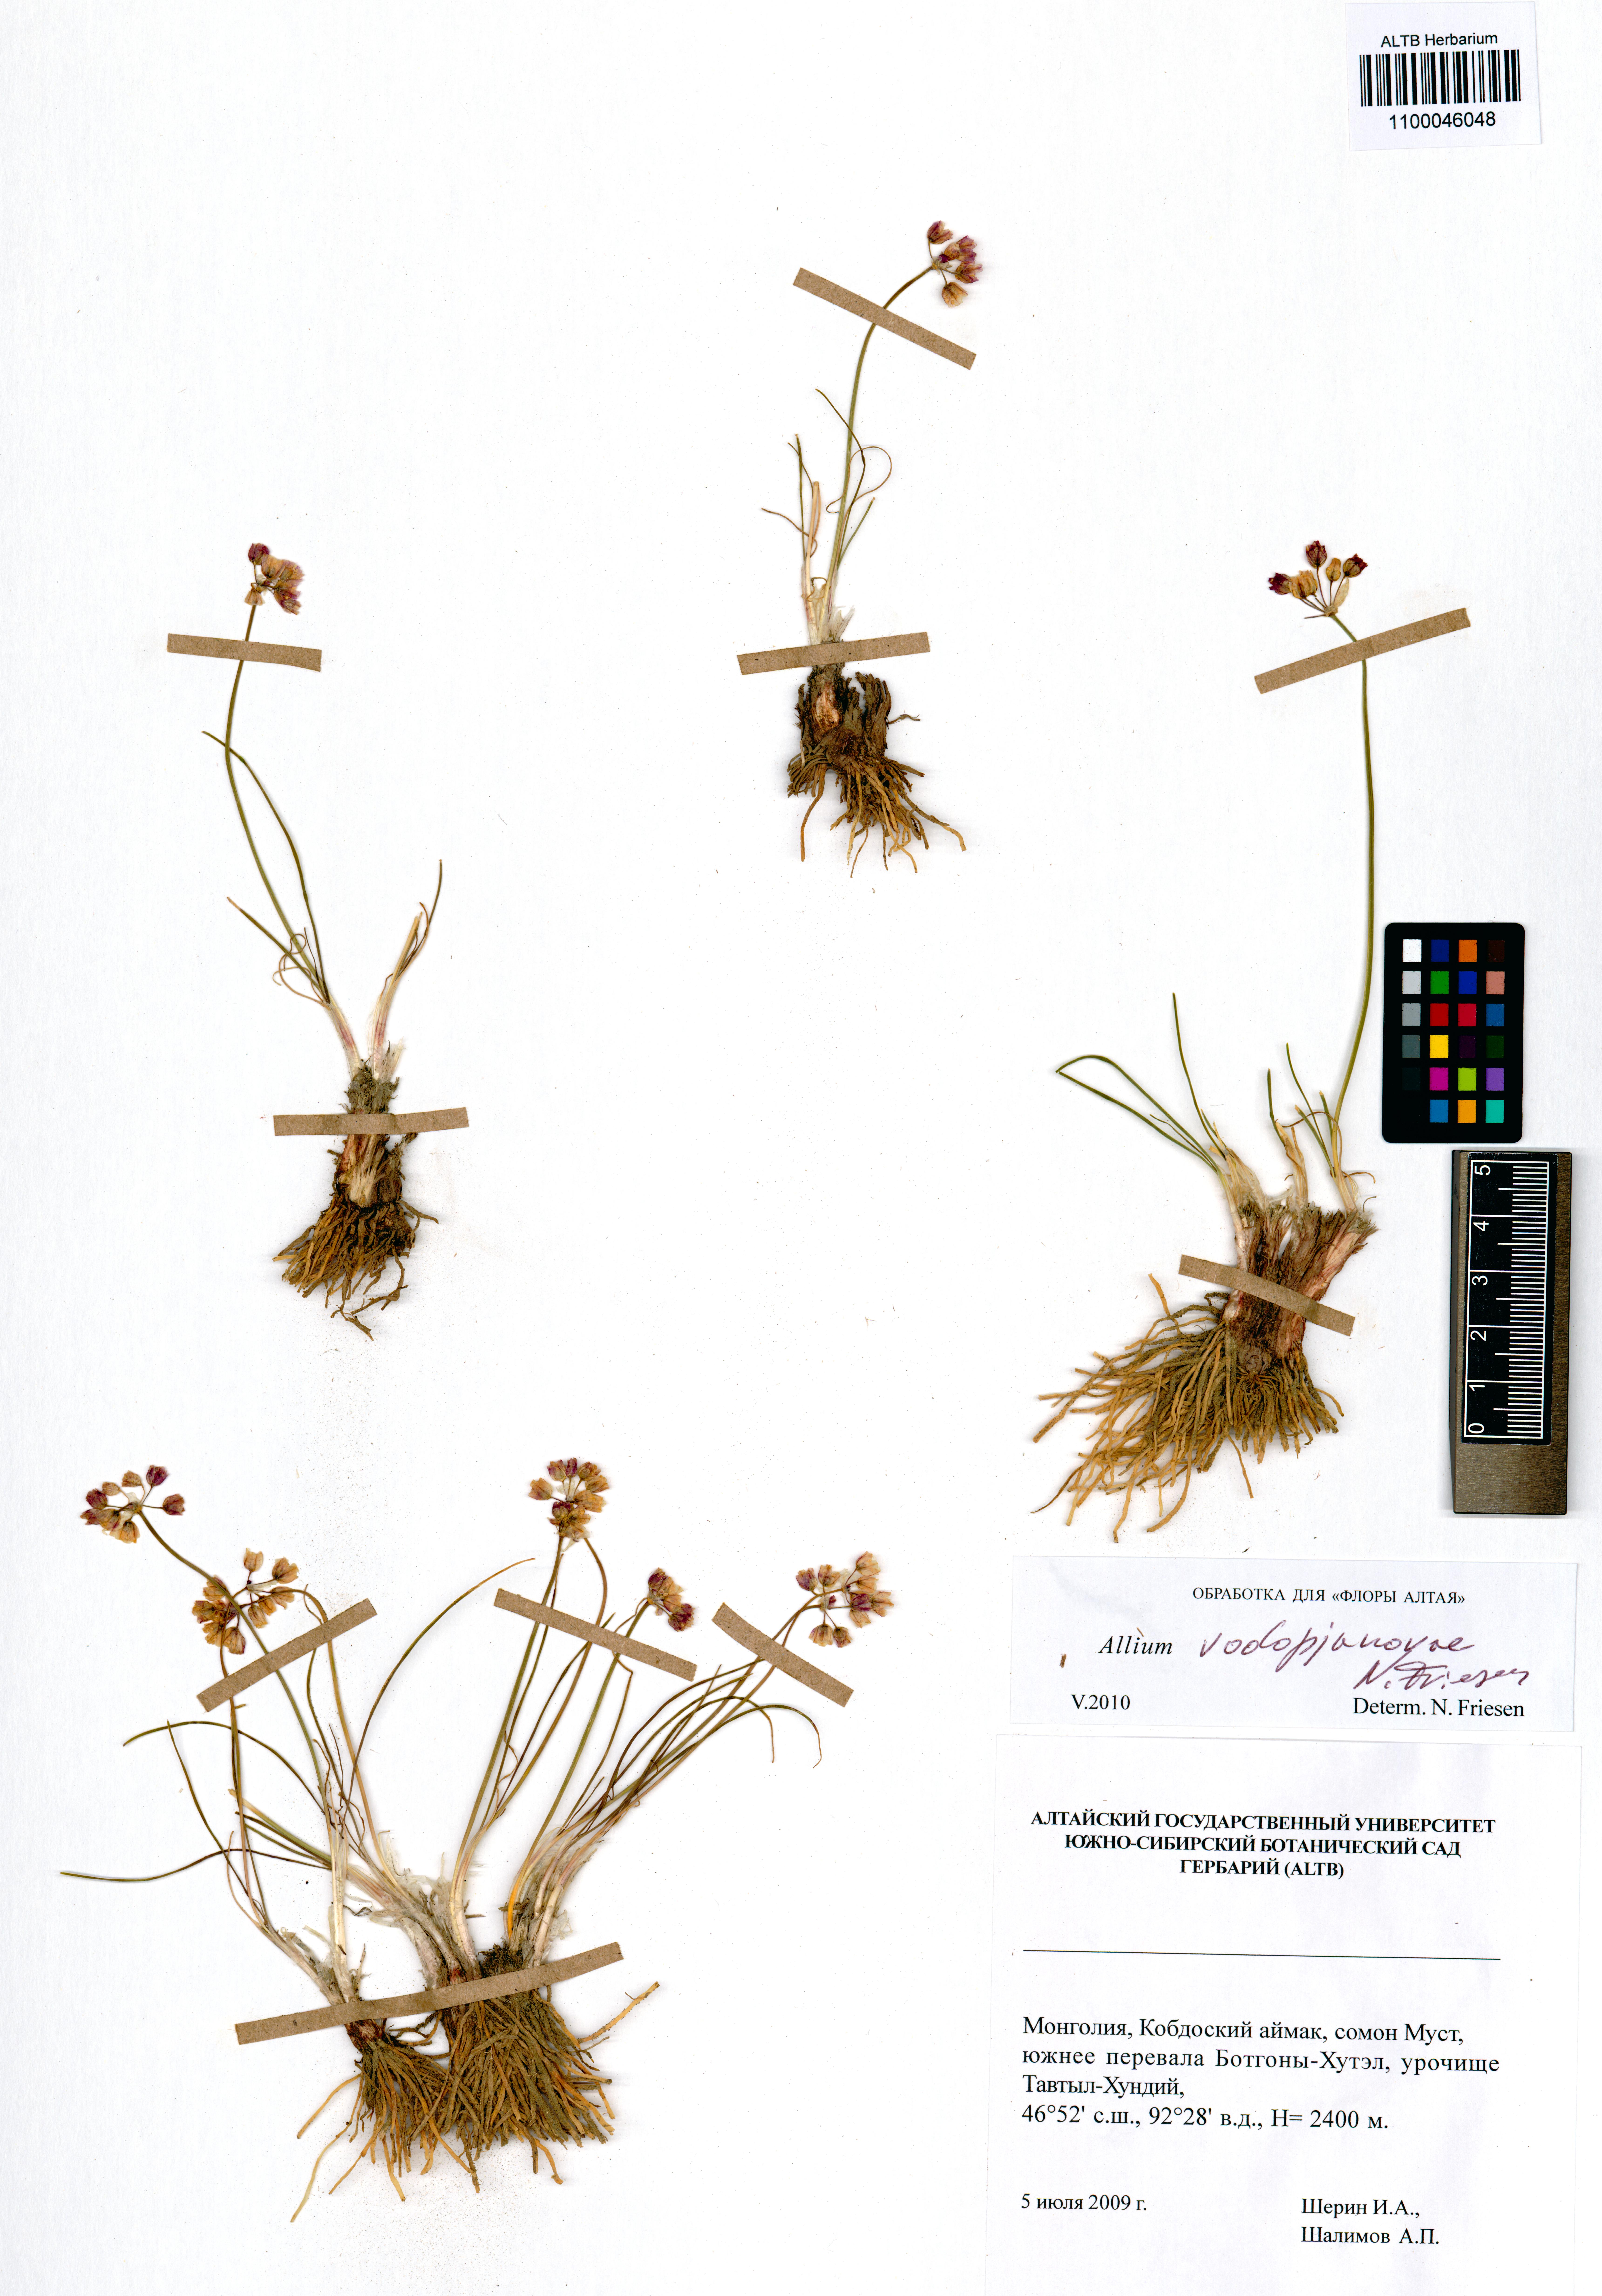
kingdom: Plantae
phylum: Tracheophyta
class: Liliopsida
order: Asparagales
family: Amaryllidaceae
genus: Allium
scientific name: Allium vodopjanovae
